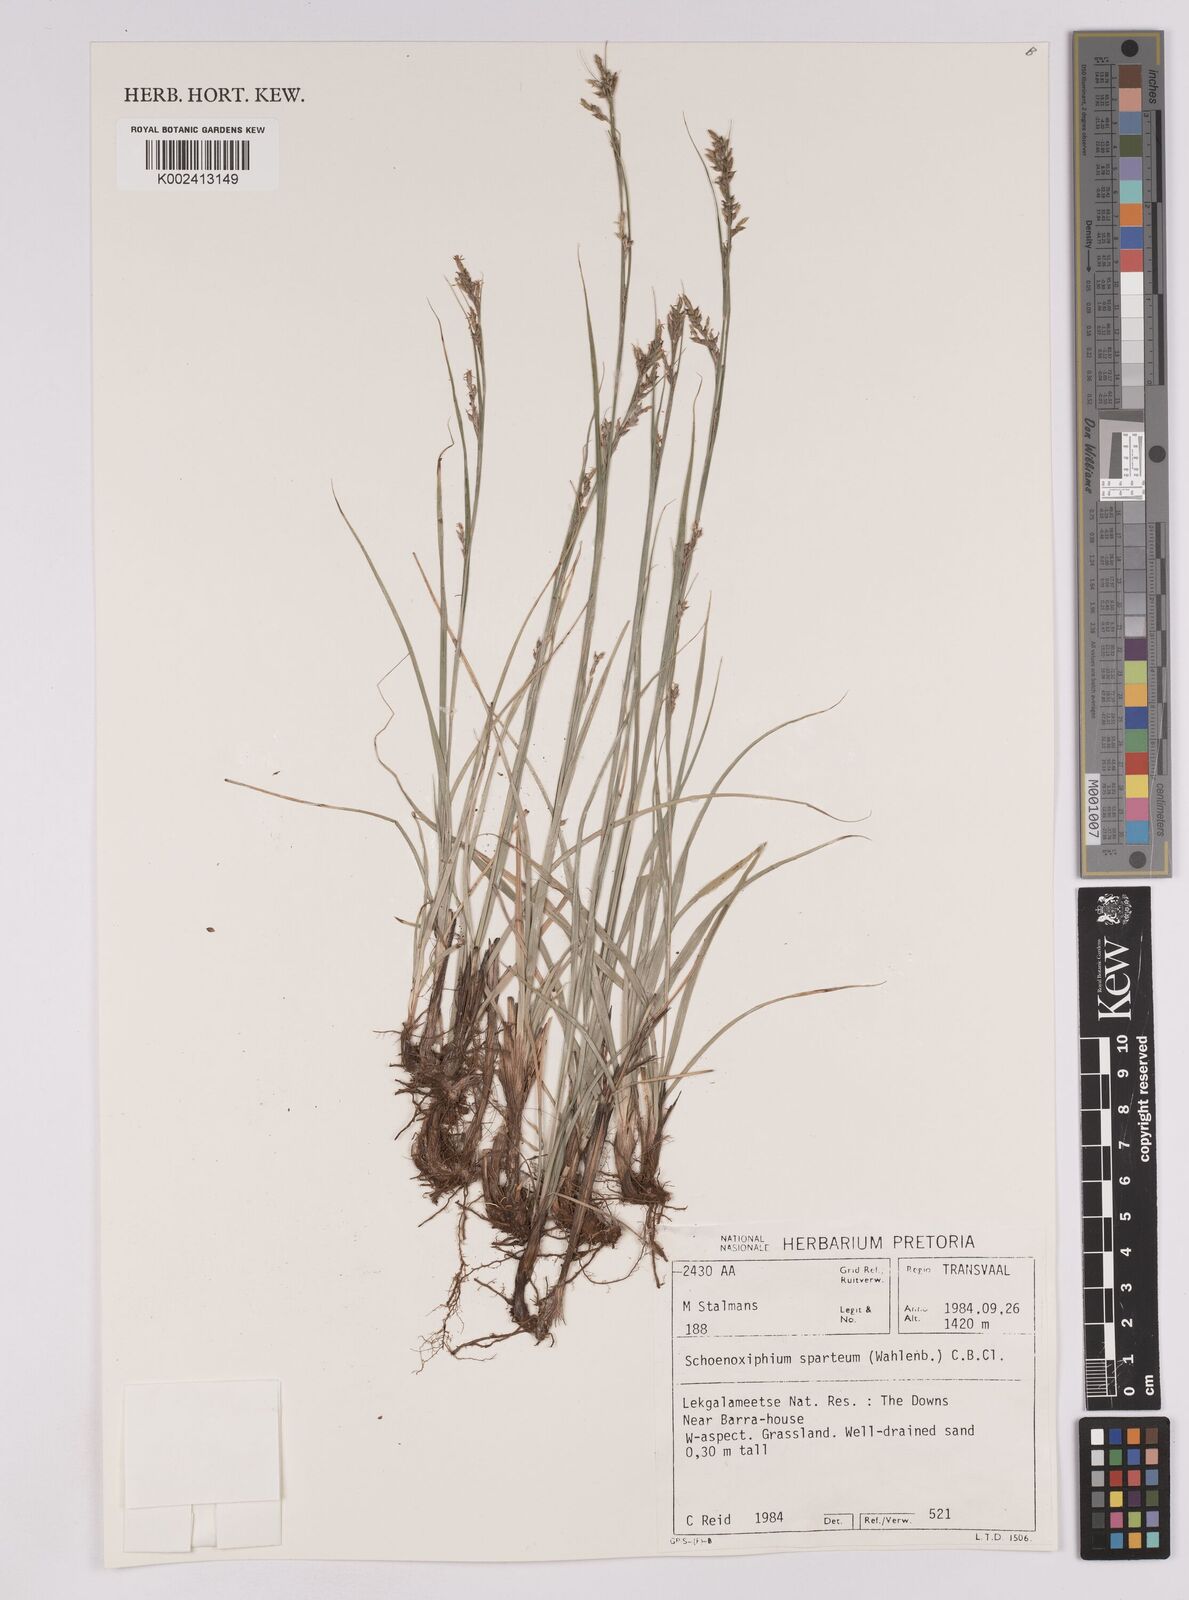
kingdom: Plantae
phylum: Tracheophyta
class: Liliopsida
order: Poales
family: Cyperaceae
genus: Carex
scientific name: Carex spartea
